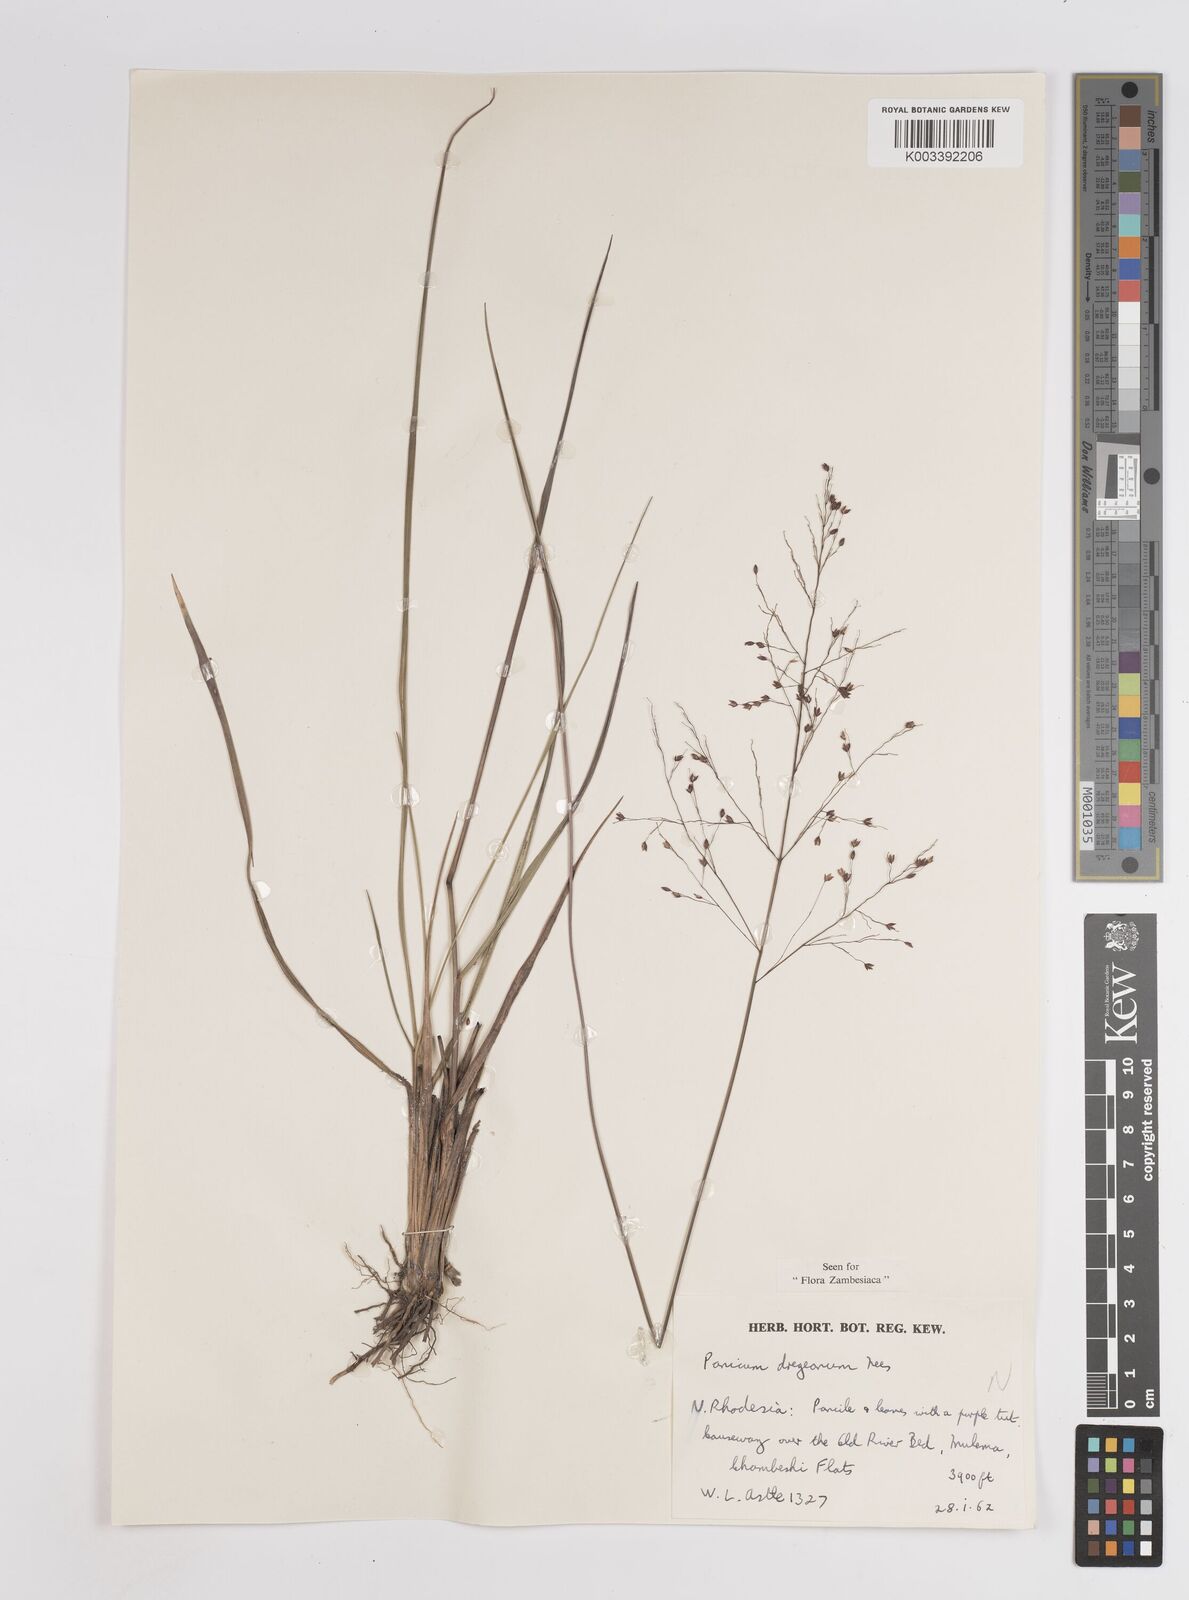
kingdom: Plantae
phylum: Tracheophyta
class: Liliopsida
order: Poales
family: Poaceae
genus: Panicum
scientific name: Panicum dregeanum
